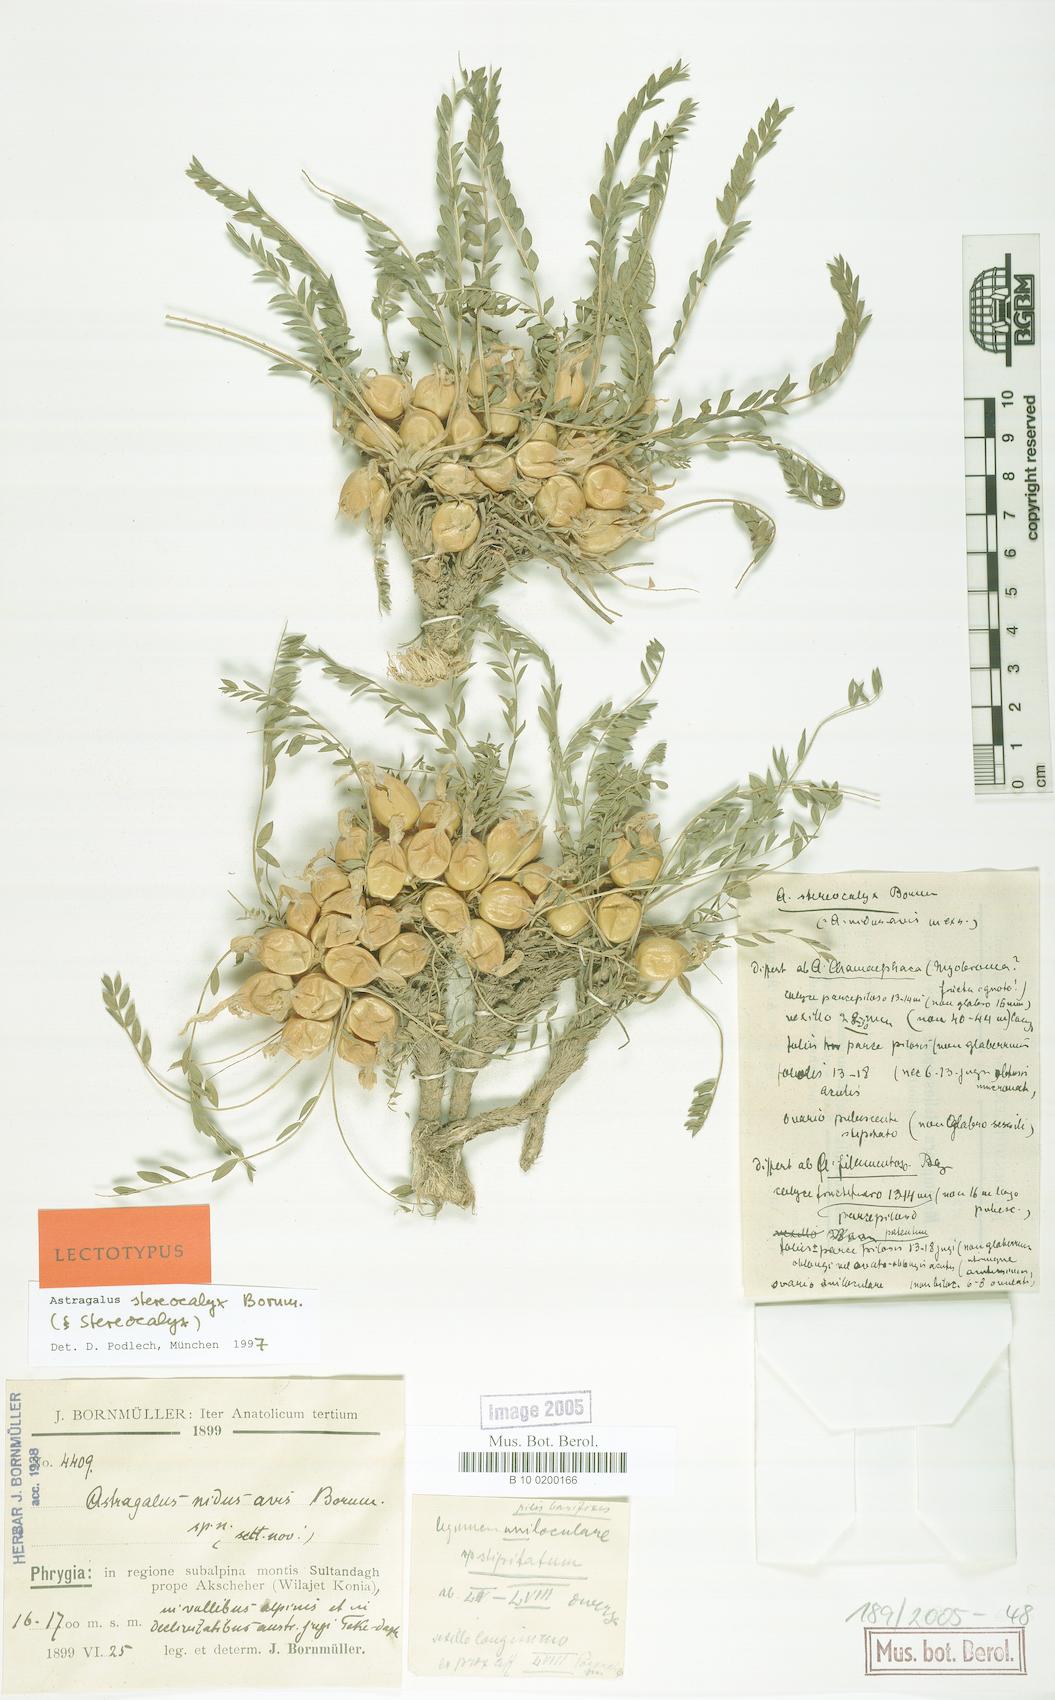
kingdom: Plantae
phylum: Tracheophyta
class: Magnoliopsida
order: Fabales
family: Fabaceae
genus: Astragalus
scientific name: Astragalus physocalyx
